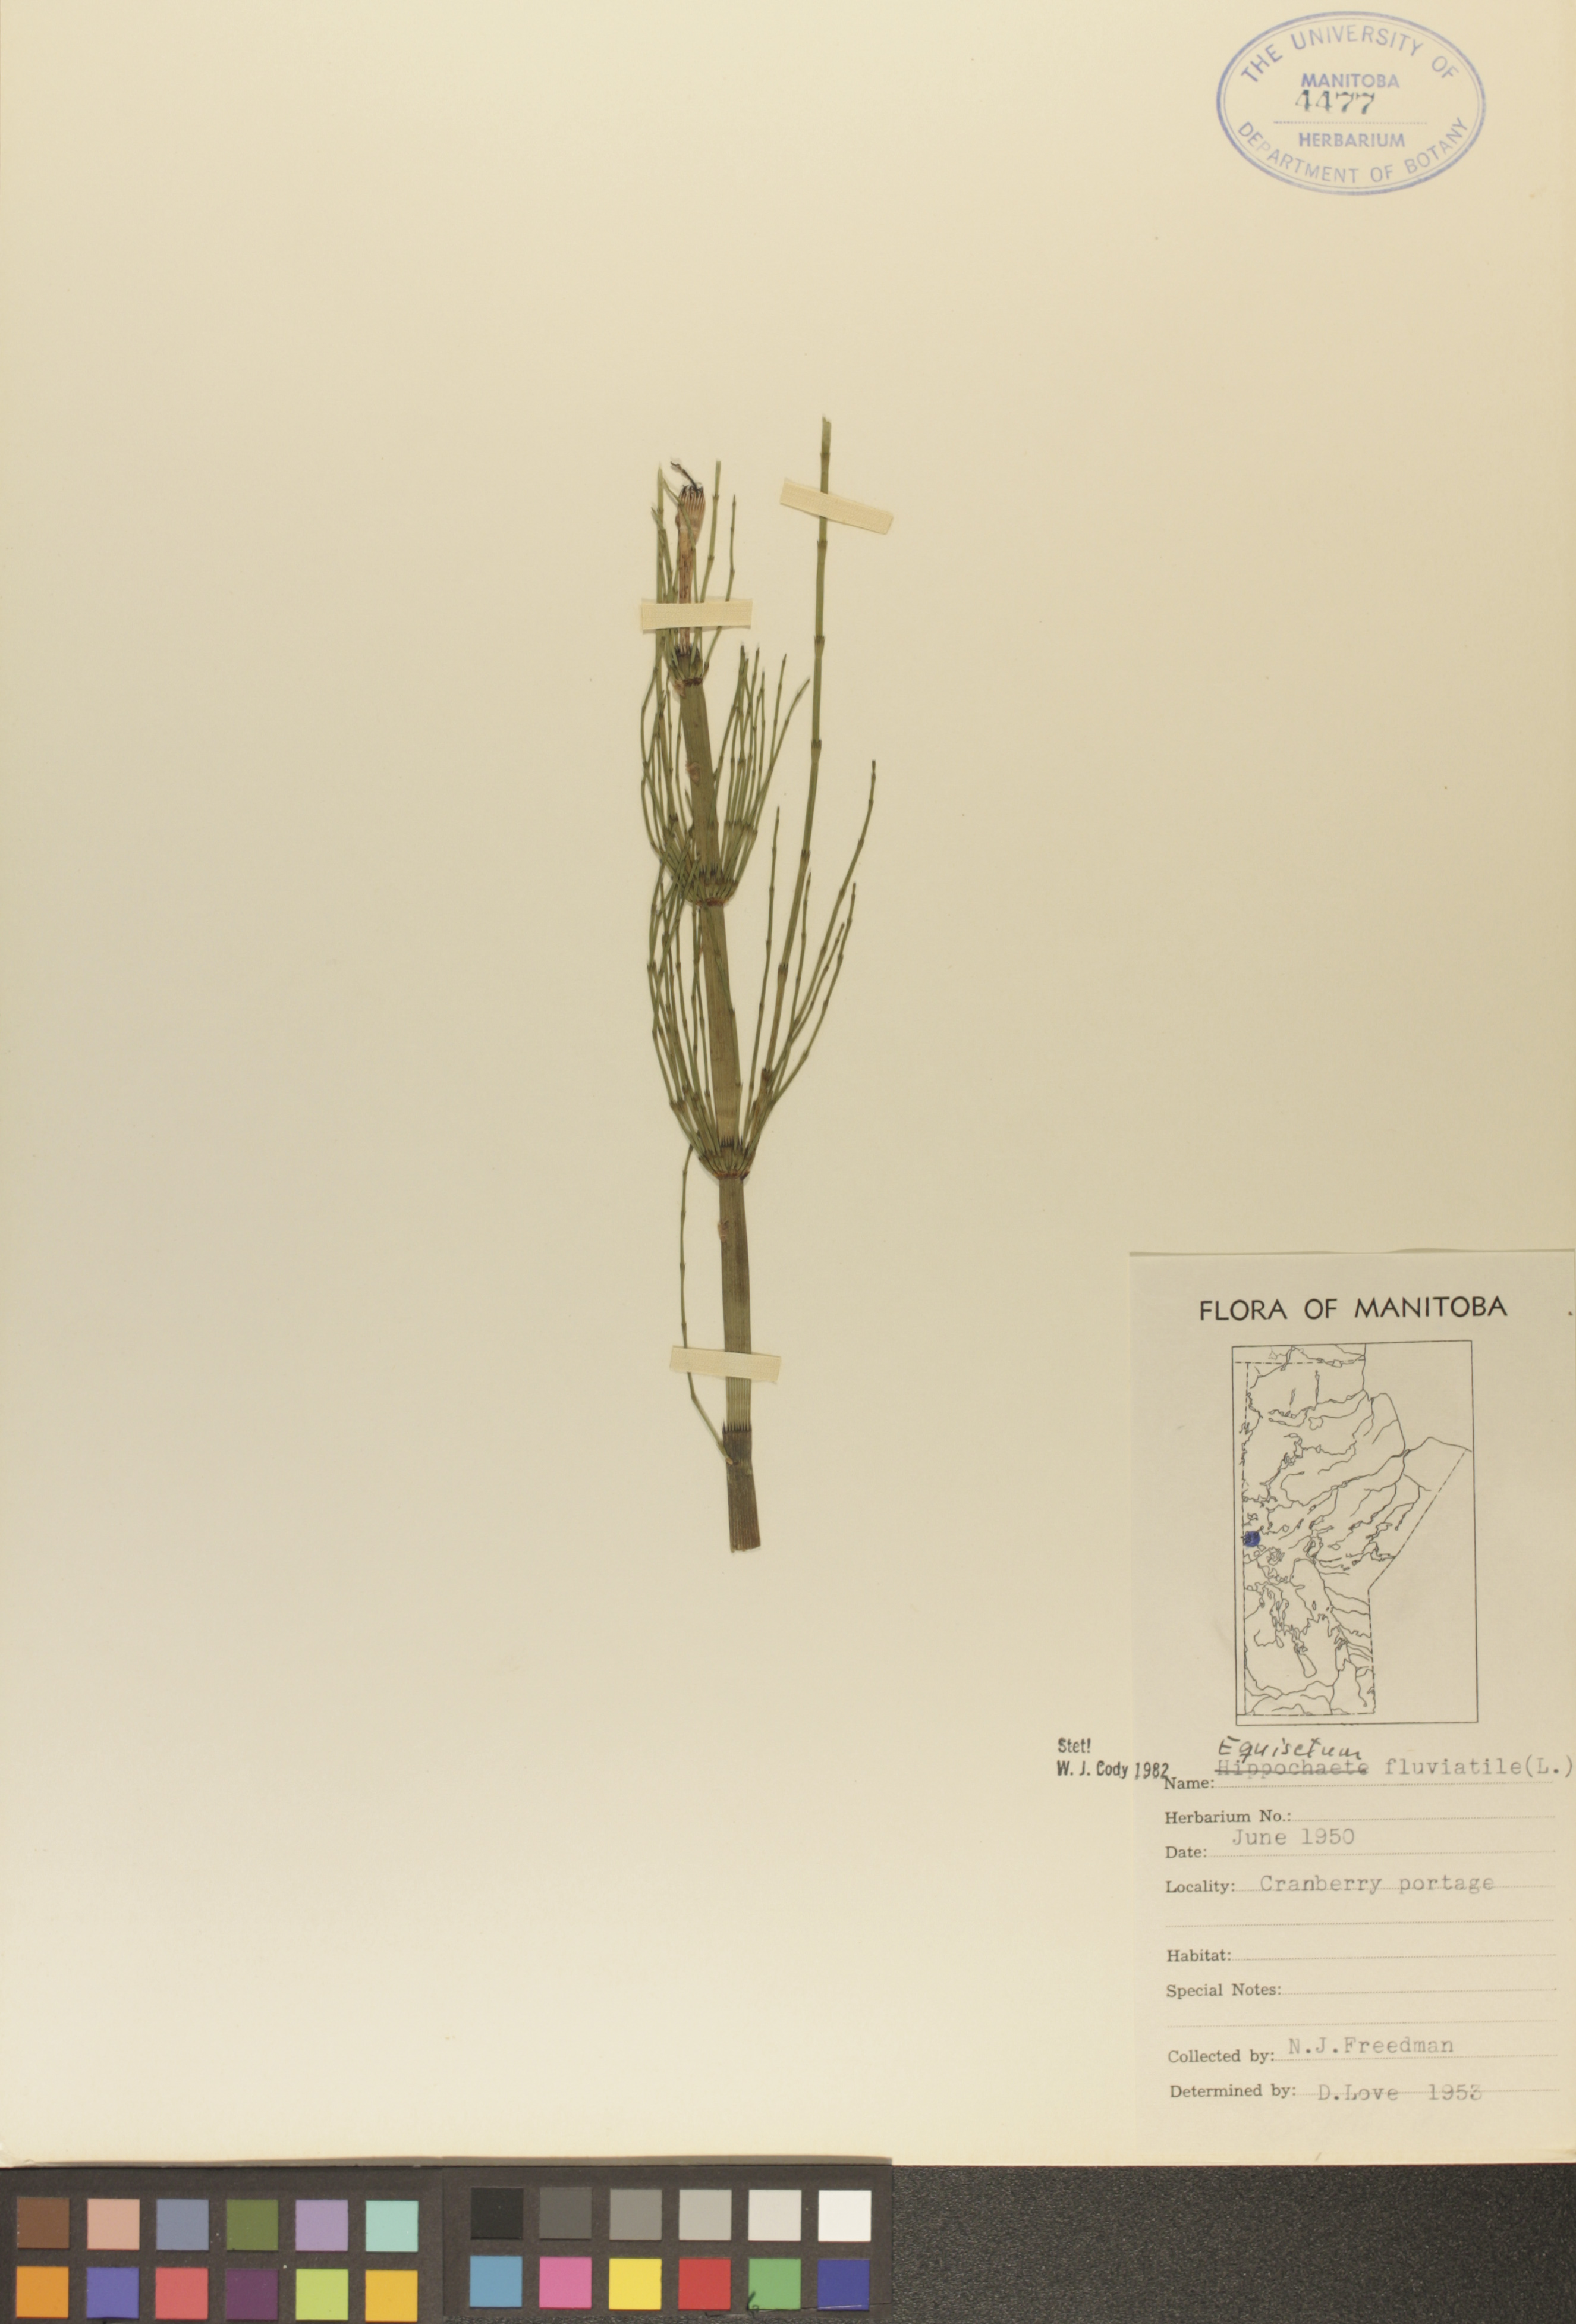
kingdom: Plantae
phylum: Tracheophyta
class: Polypodiopsida
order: Equisetales
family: Equisetaceae
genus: Equisetum
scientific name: Equisetum fluviatile
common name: Water horsetail
